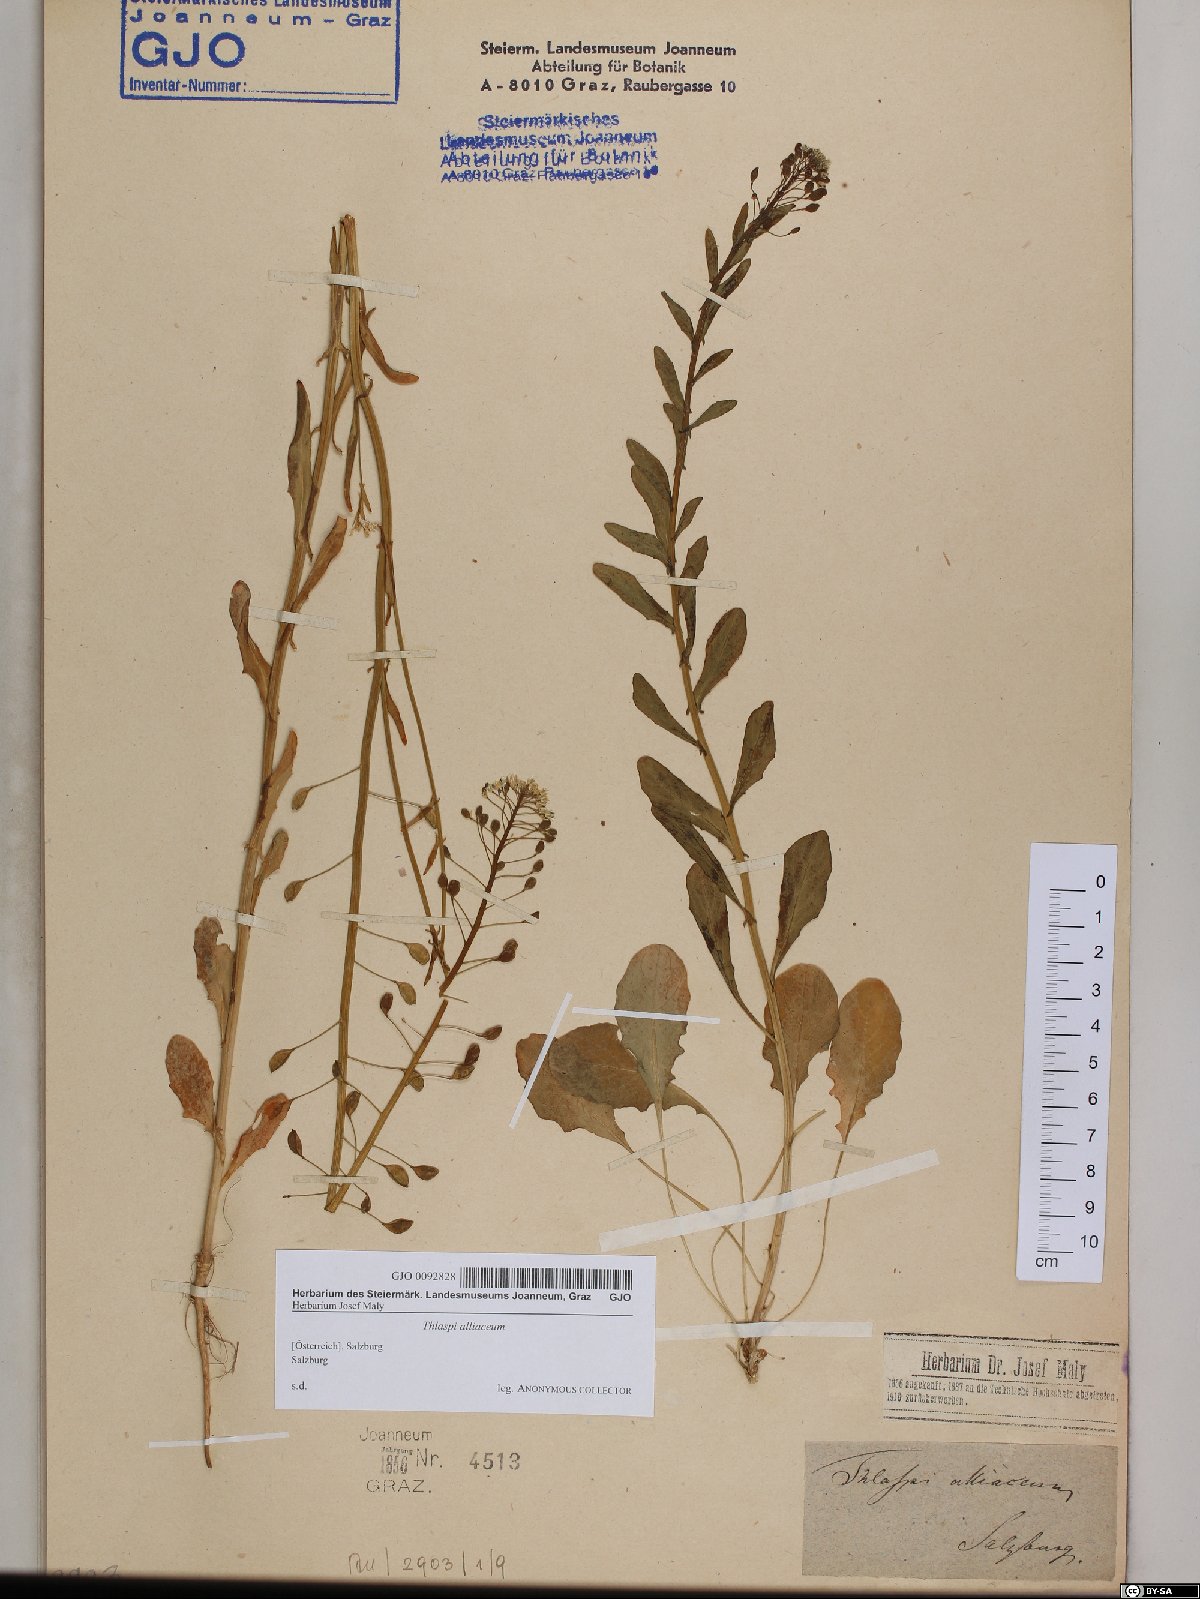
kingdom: Plantae
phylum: Tracheophyta
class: Magnoliopsida
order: Brassicales
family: Brassicaceae
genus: Mummenhoffia
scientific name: Mummenhoffia alliacea
